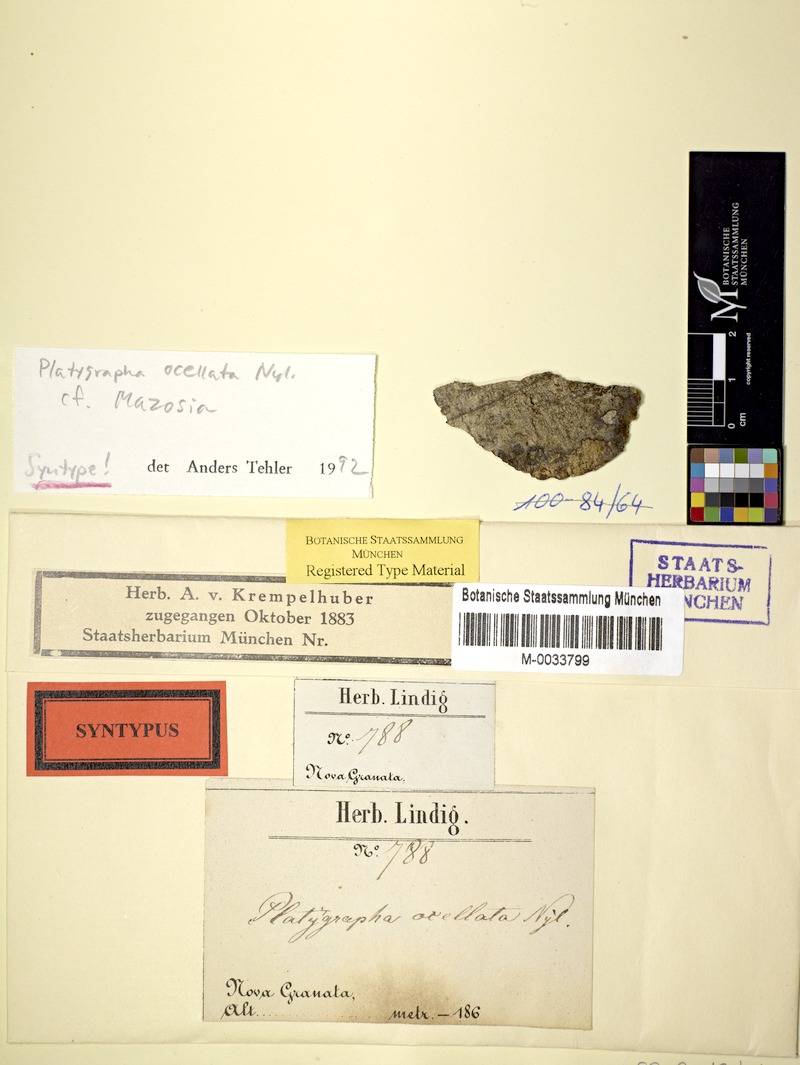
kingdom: Fungi
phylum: Ascomycota
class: Arthoniomycetes
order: Arthoniales
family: Roccellaceae
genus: Mazosia
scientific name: Mazosia ocellata
